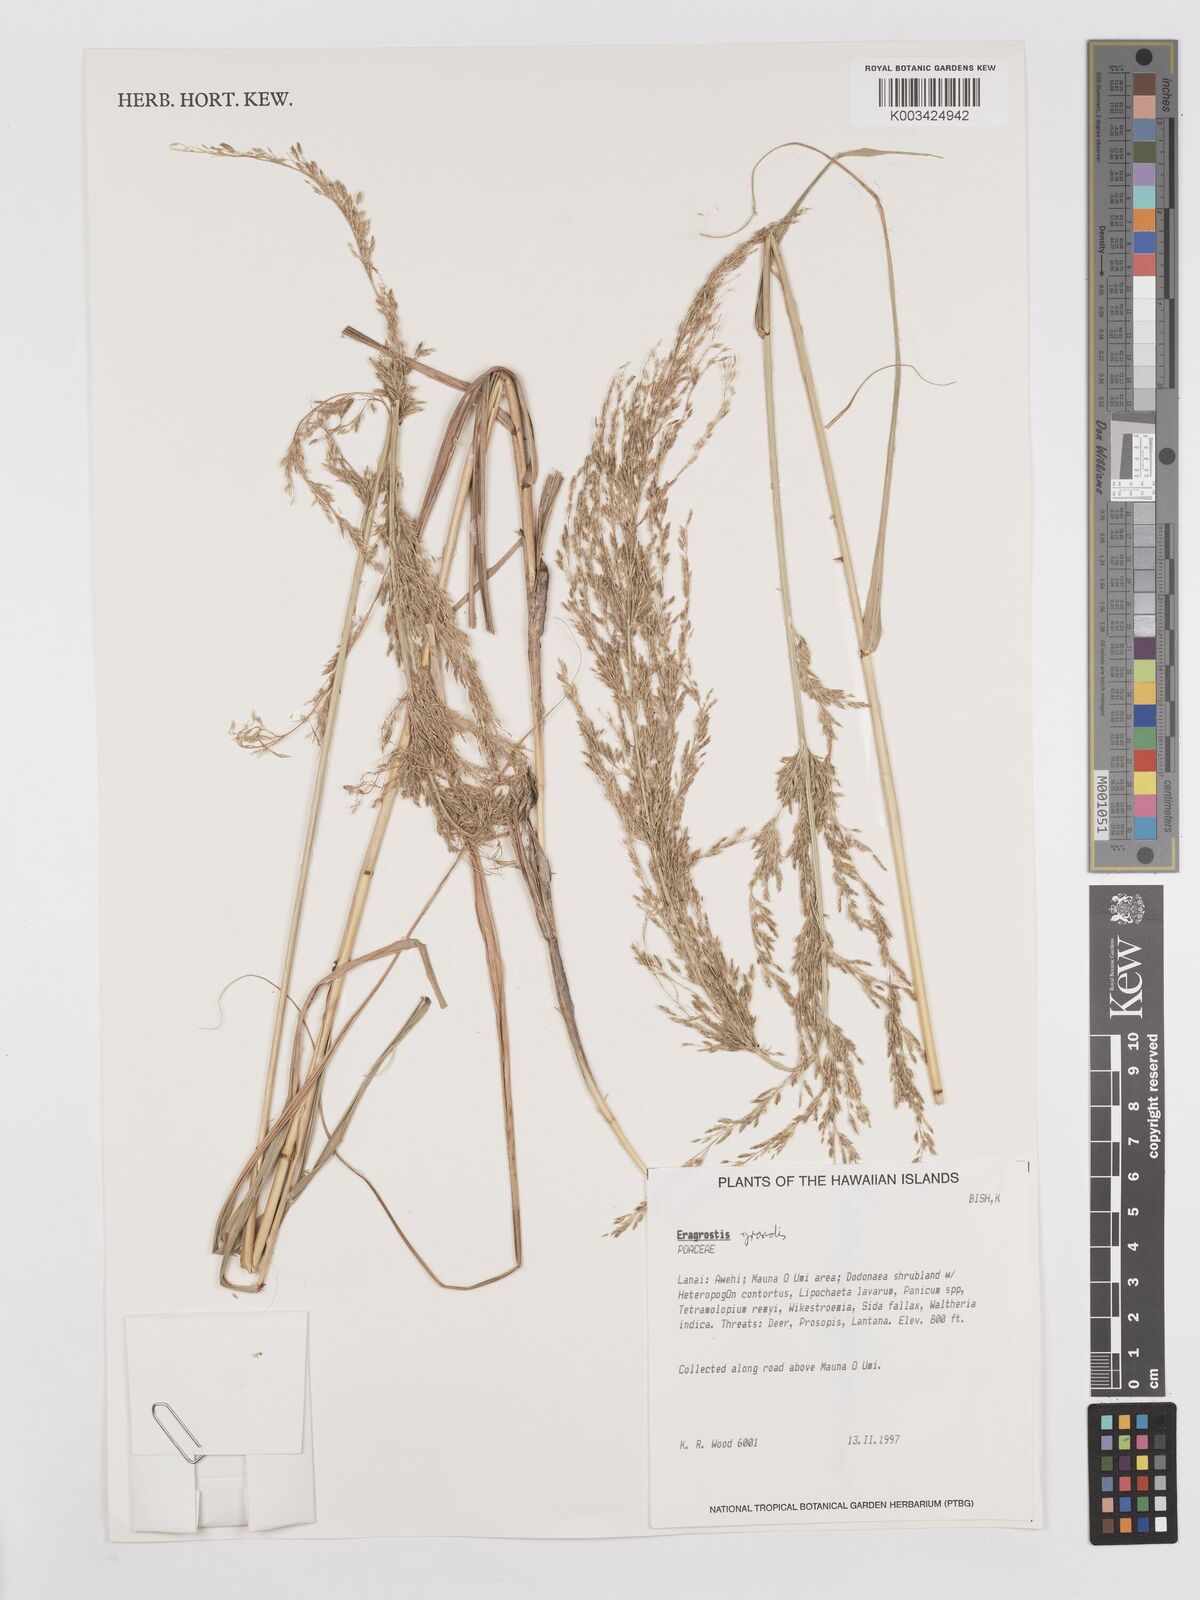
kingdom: Plantae
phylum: Tracheophyta
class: Liliopsida
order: Poales
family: Poaceae
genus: Eragrostis
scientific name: Eragrostis grandis
